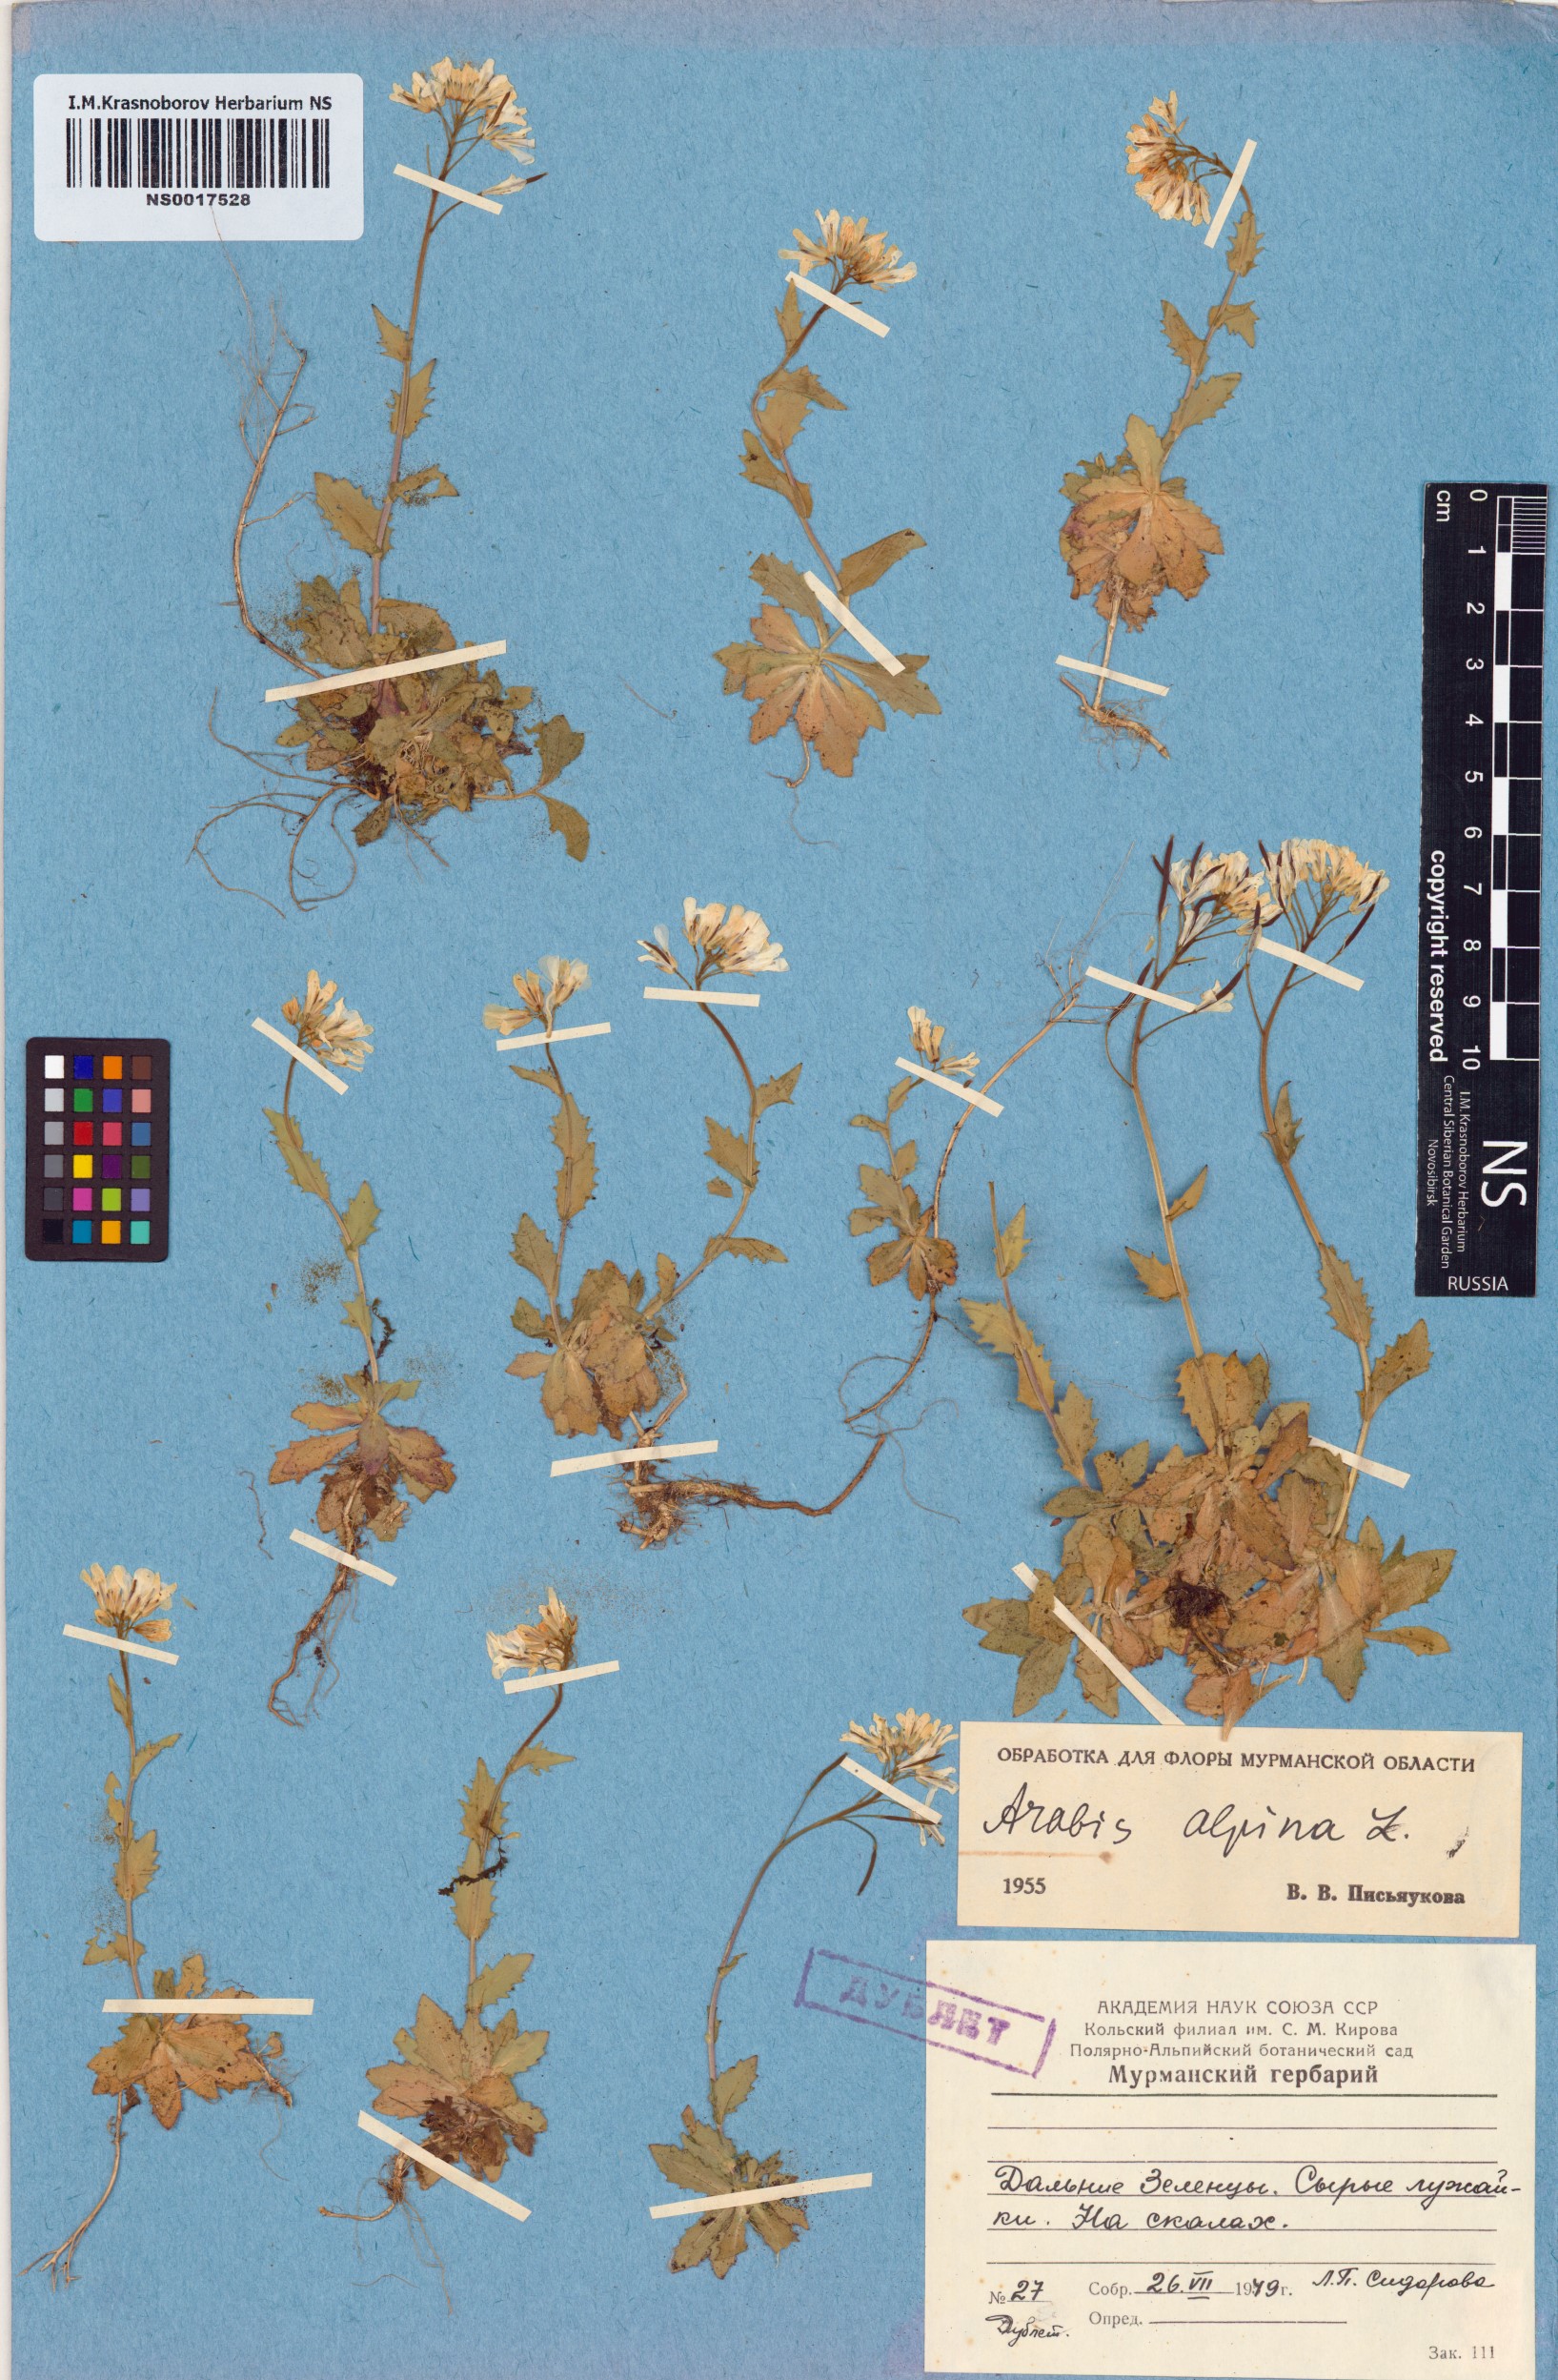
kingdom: Plantae
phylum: Tracheophyta
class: Magnoliopsida
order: Brassicales
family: Brassicaceae
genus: Arabis
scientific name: Arabis alpina
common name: Alpine rock-cress
